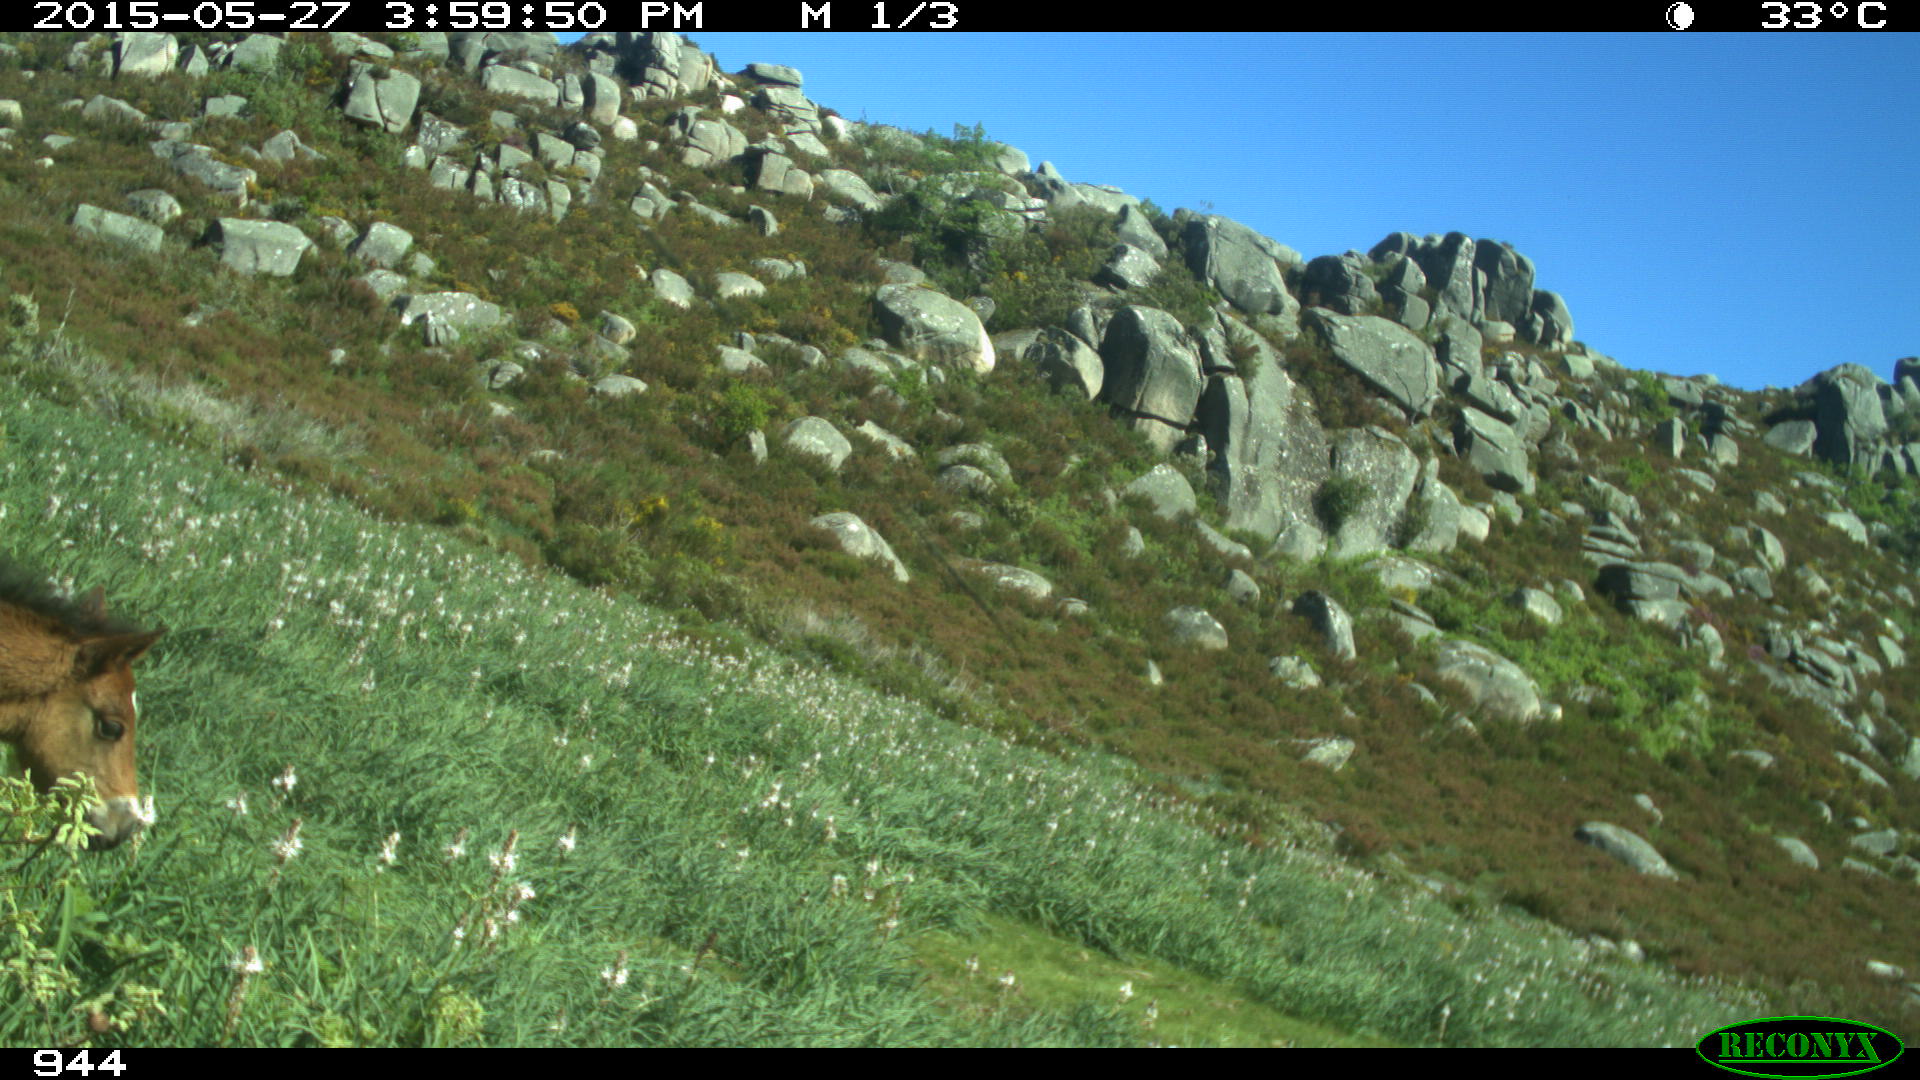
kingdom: Animalia
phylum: Chordata
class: Mammalia
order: Perissodactyla
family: Equidae
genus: Equus
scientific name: Equus caballus
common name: Horse
